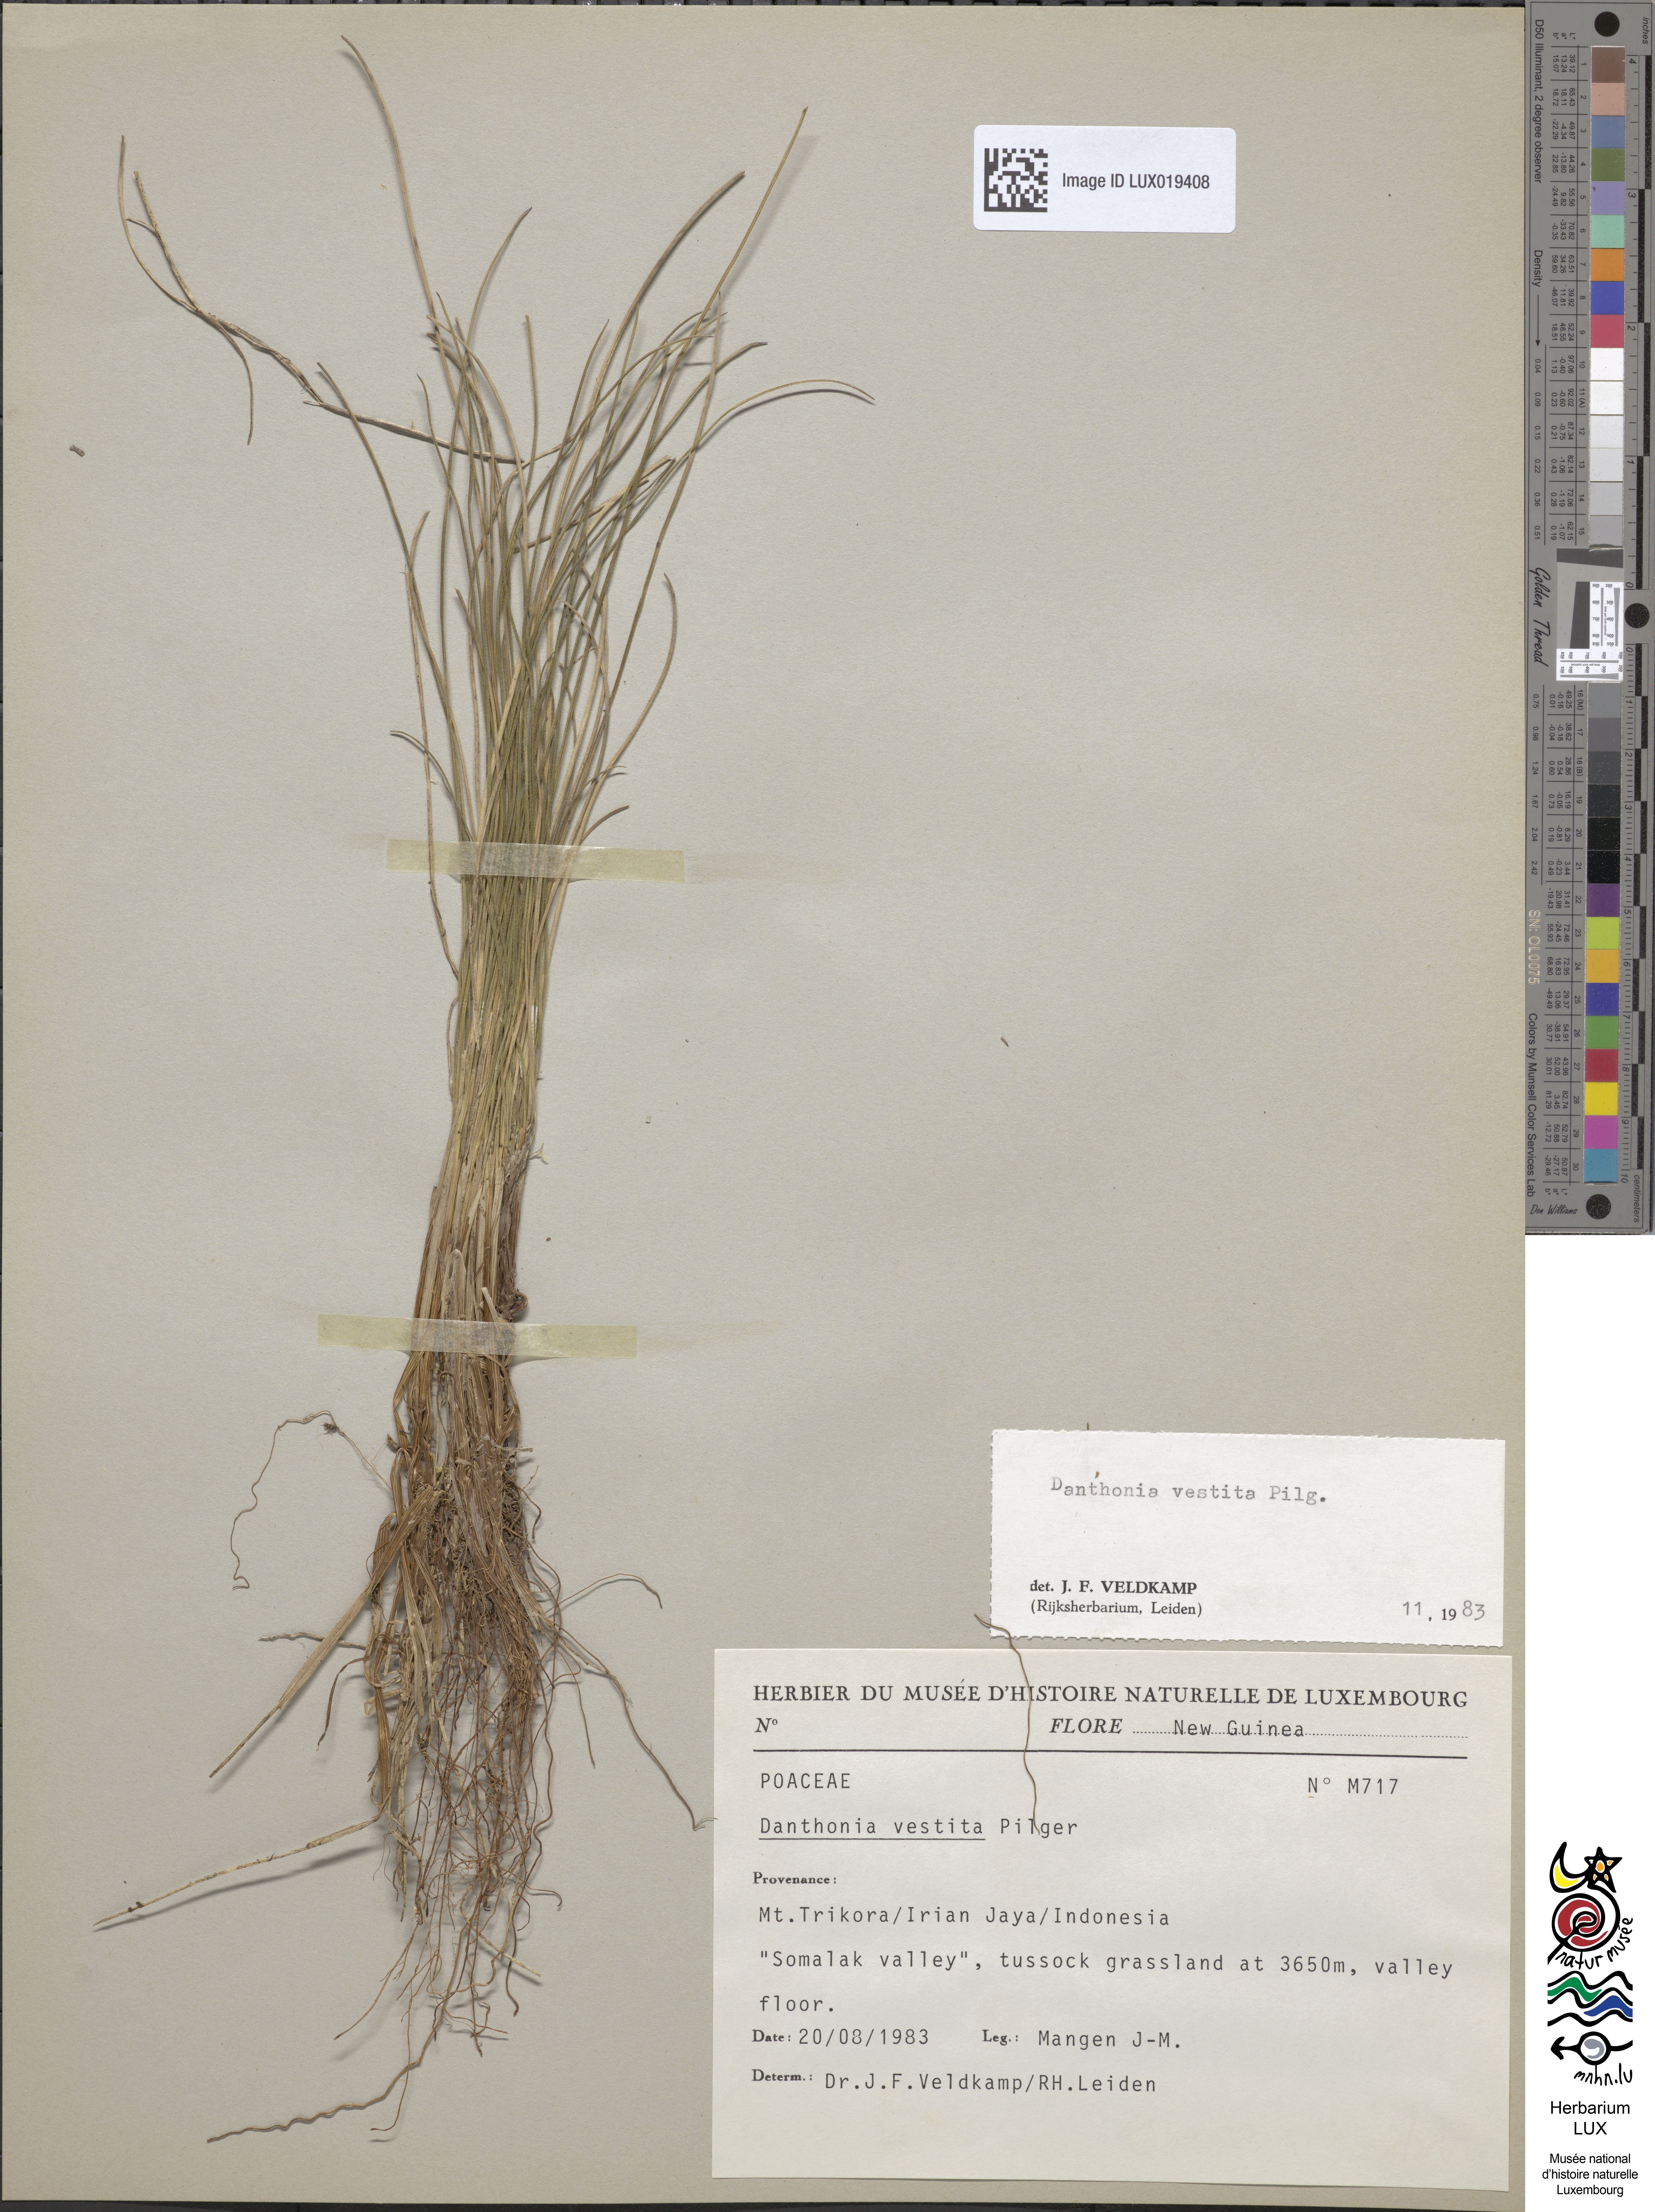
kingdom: Plantae
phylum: Tracheophyta
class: Liliopsida
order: Poales
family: Poaceae
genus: Rytidosperma
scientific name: Rytidosperma vestitum
